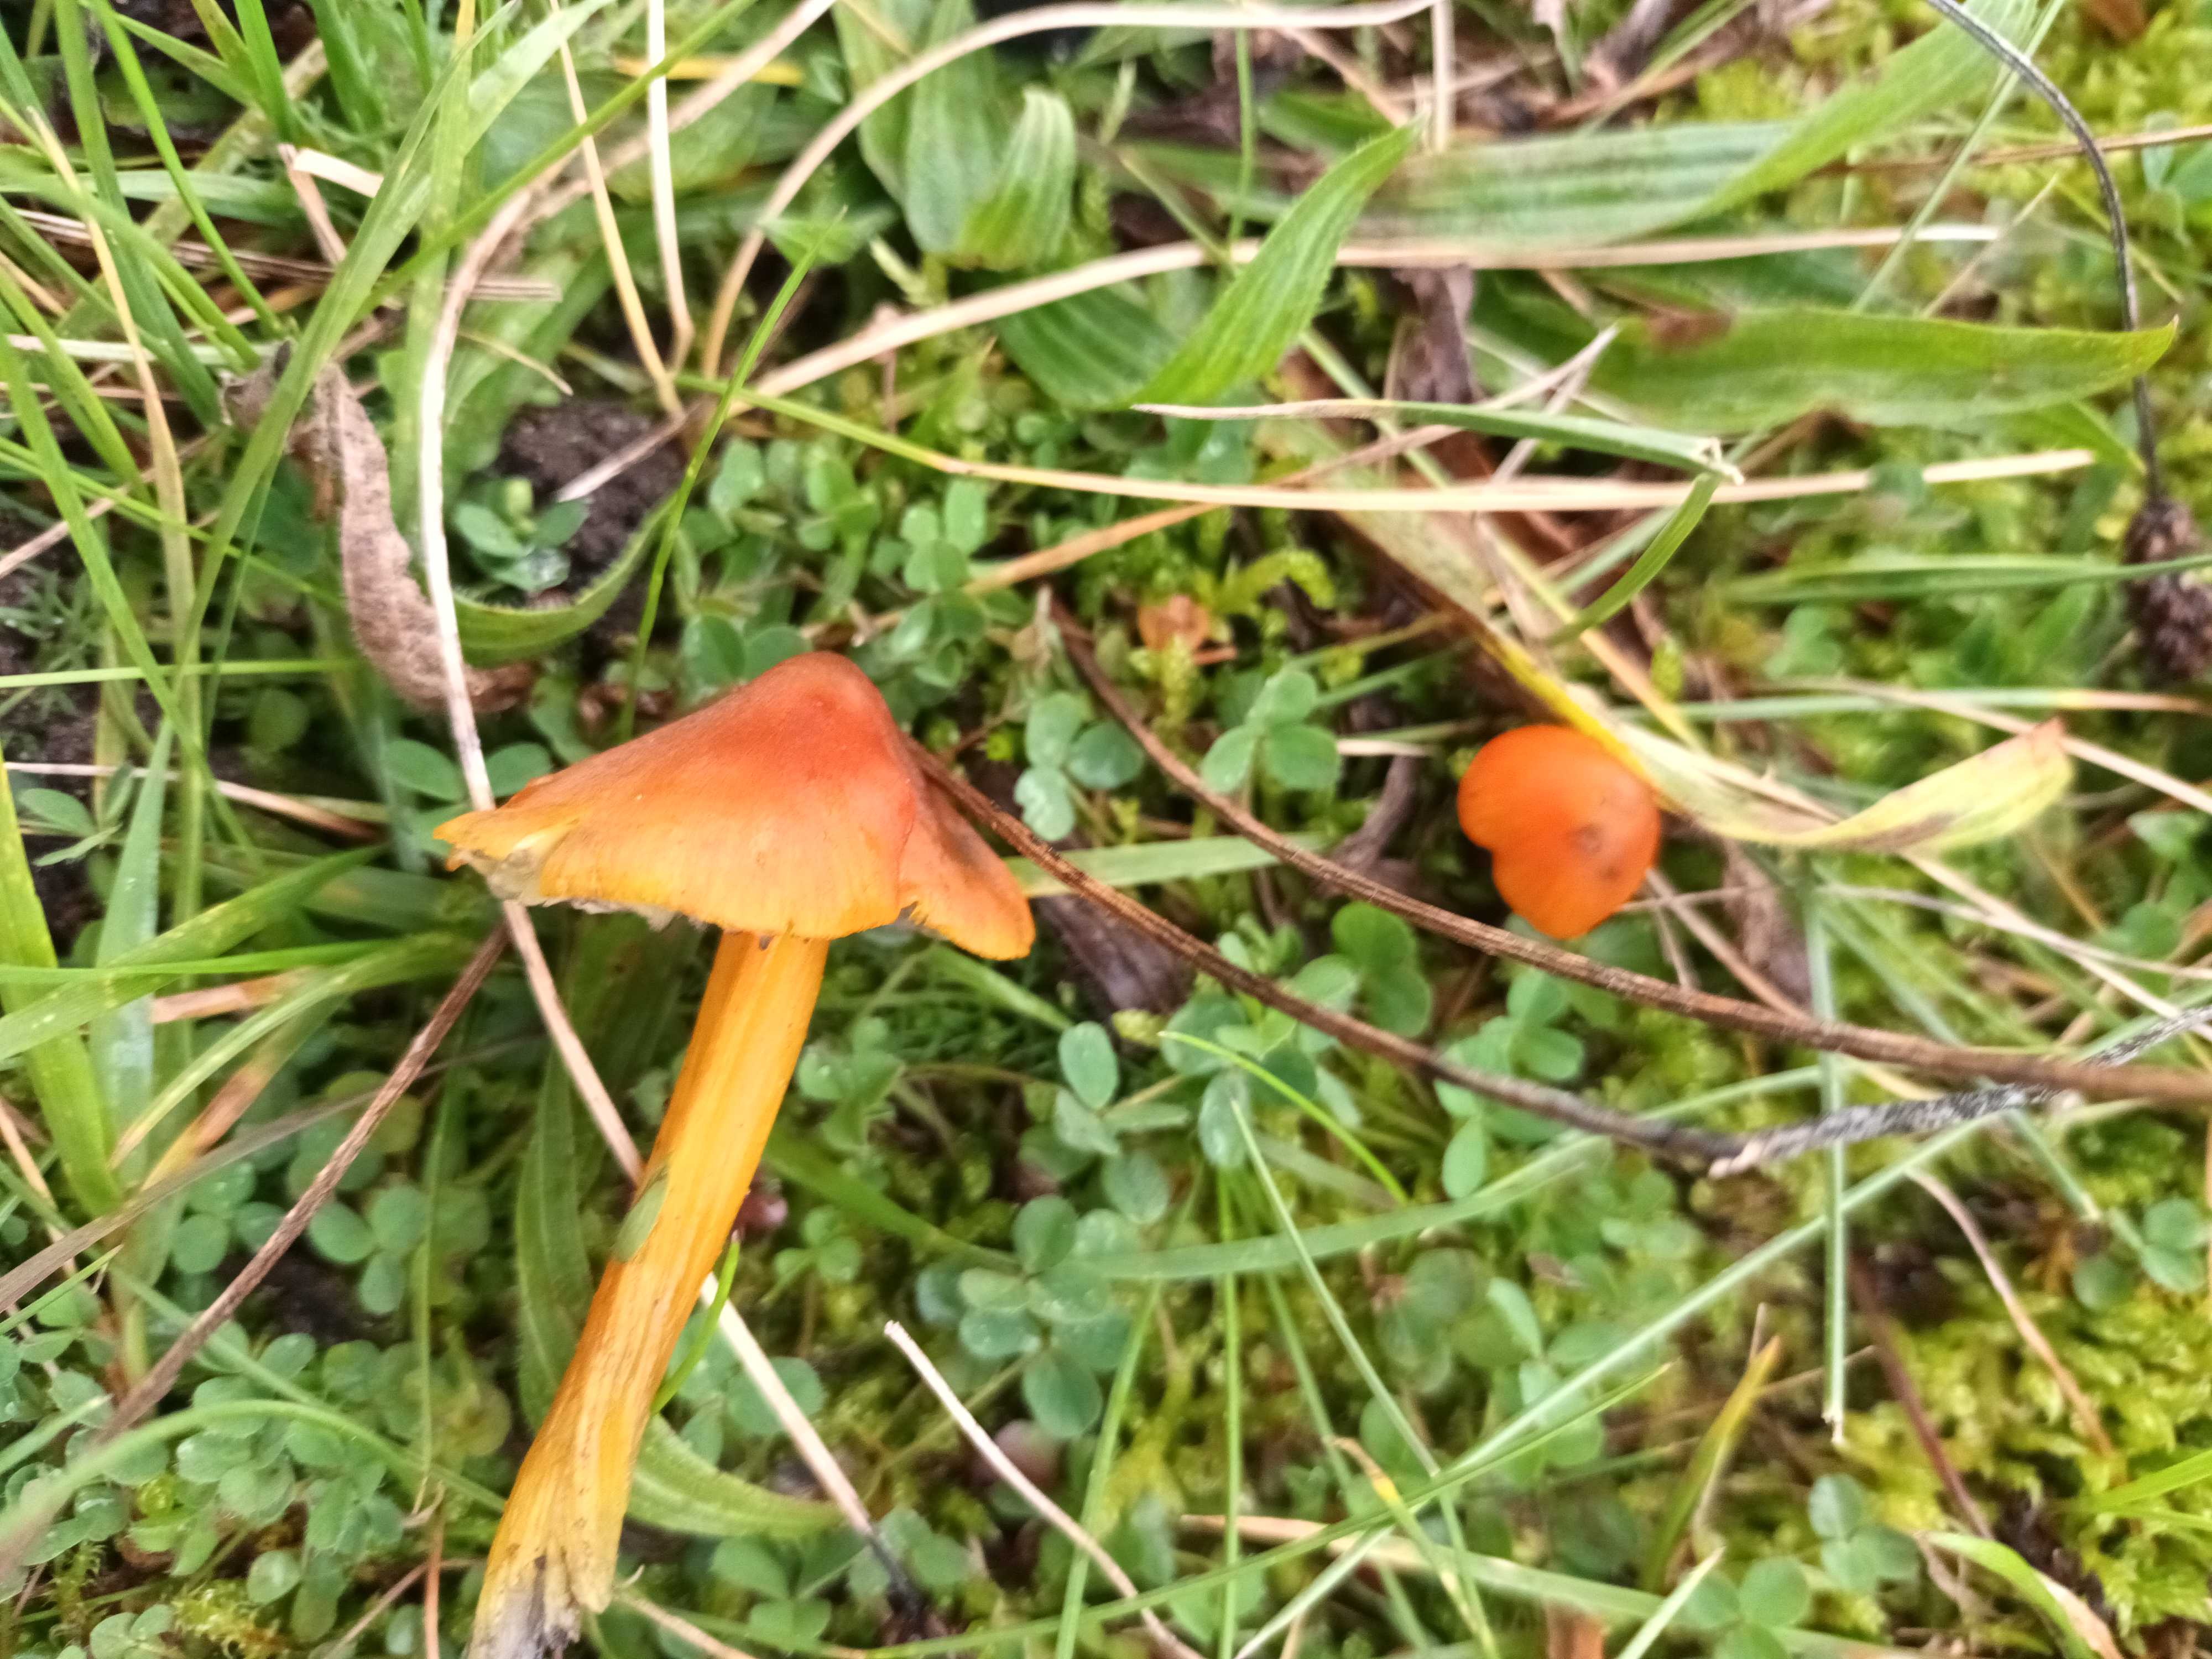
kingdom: Fungi
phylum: Basidiomycota
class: Agaricomycetes
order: Agaricales
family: Hygrophoraceae
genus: Hygrocybe
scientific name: Hygrocybe conica
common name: kegle-vokshat
